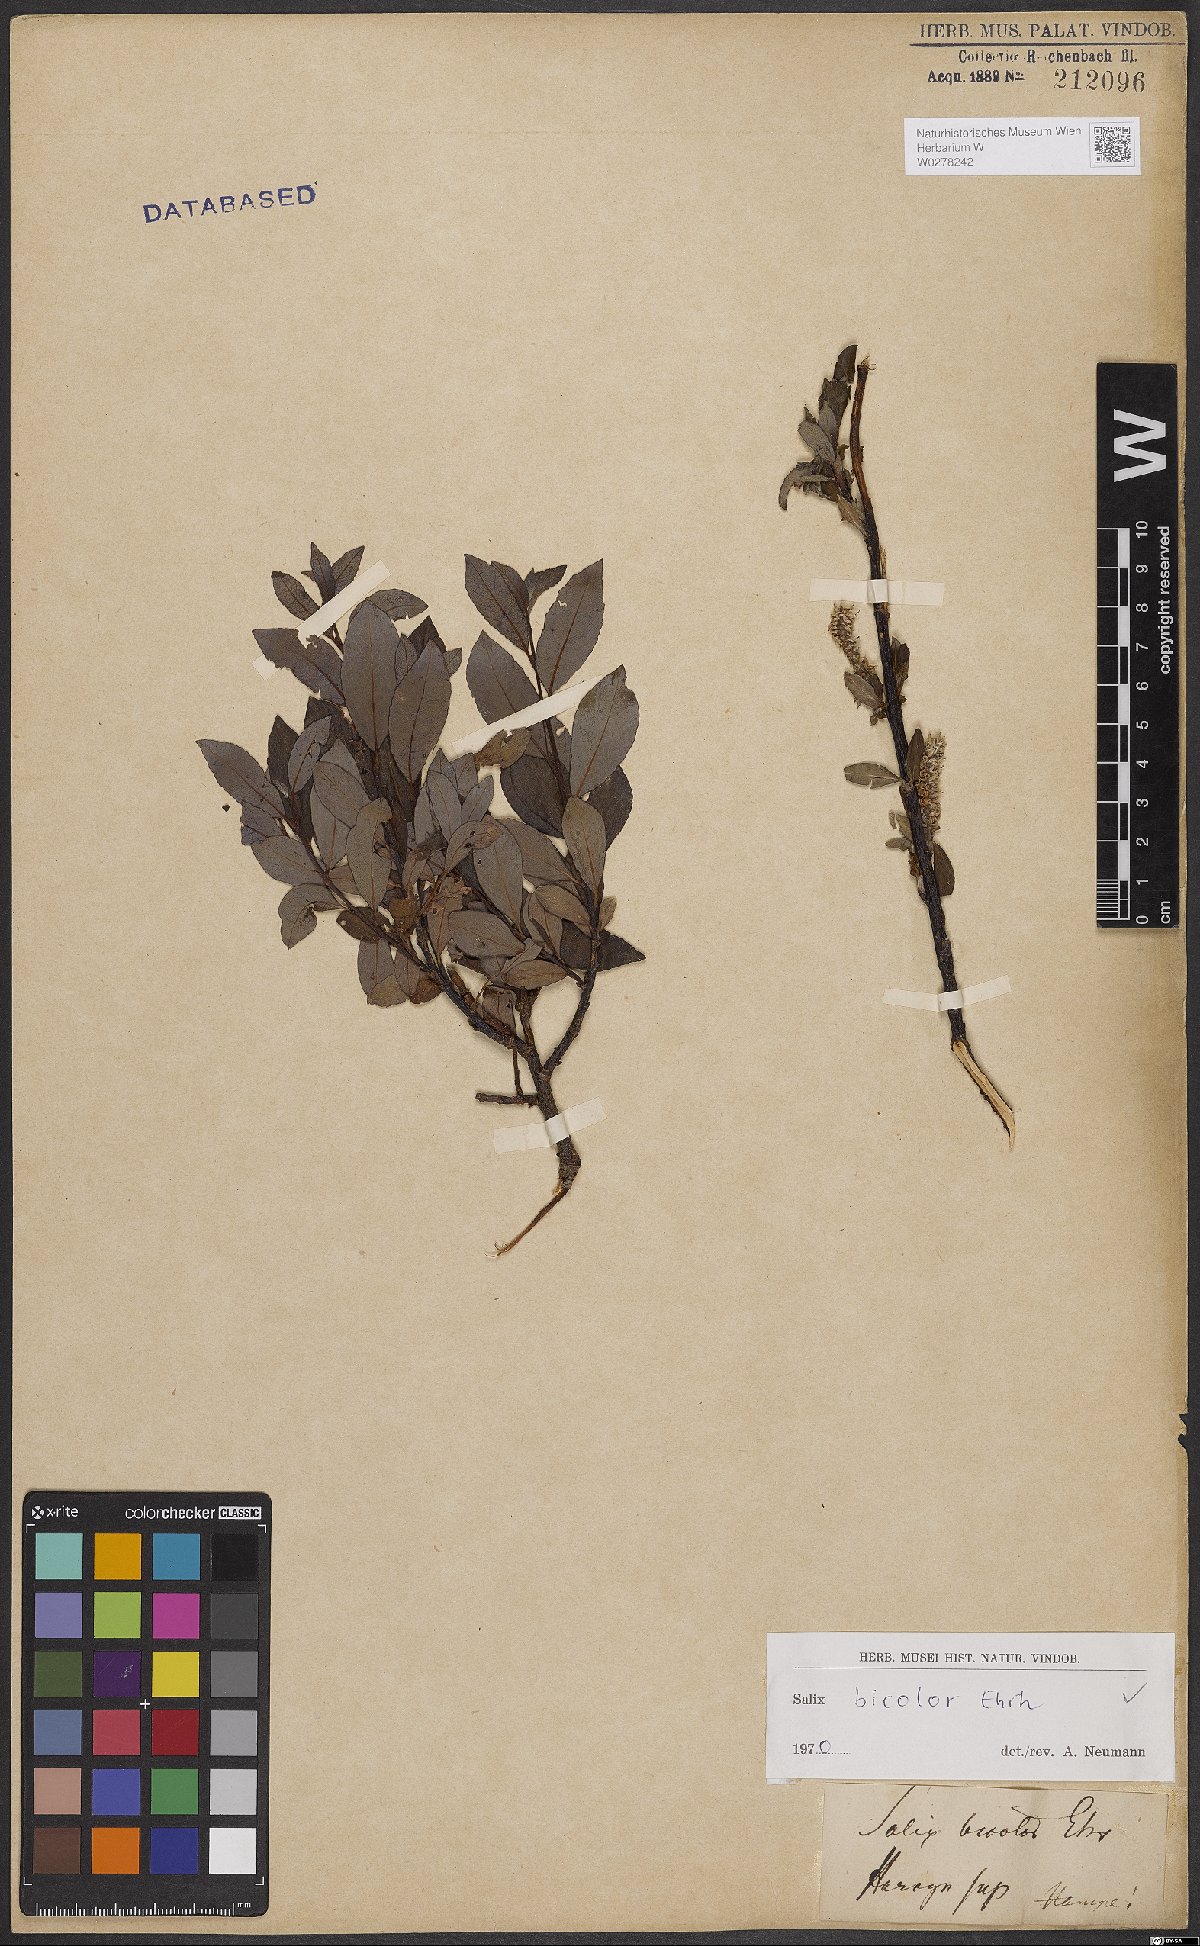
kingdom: Plantae
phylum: Tracheophyta
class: Magnoliopsida
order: Malpighiales
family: Salicaceae
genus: Salix
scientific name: Salix bicolor
